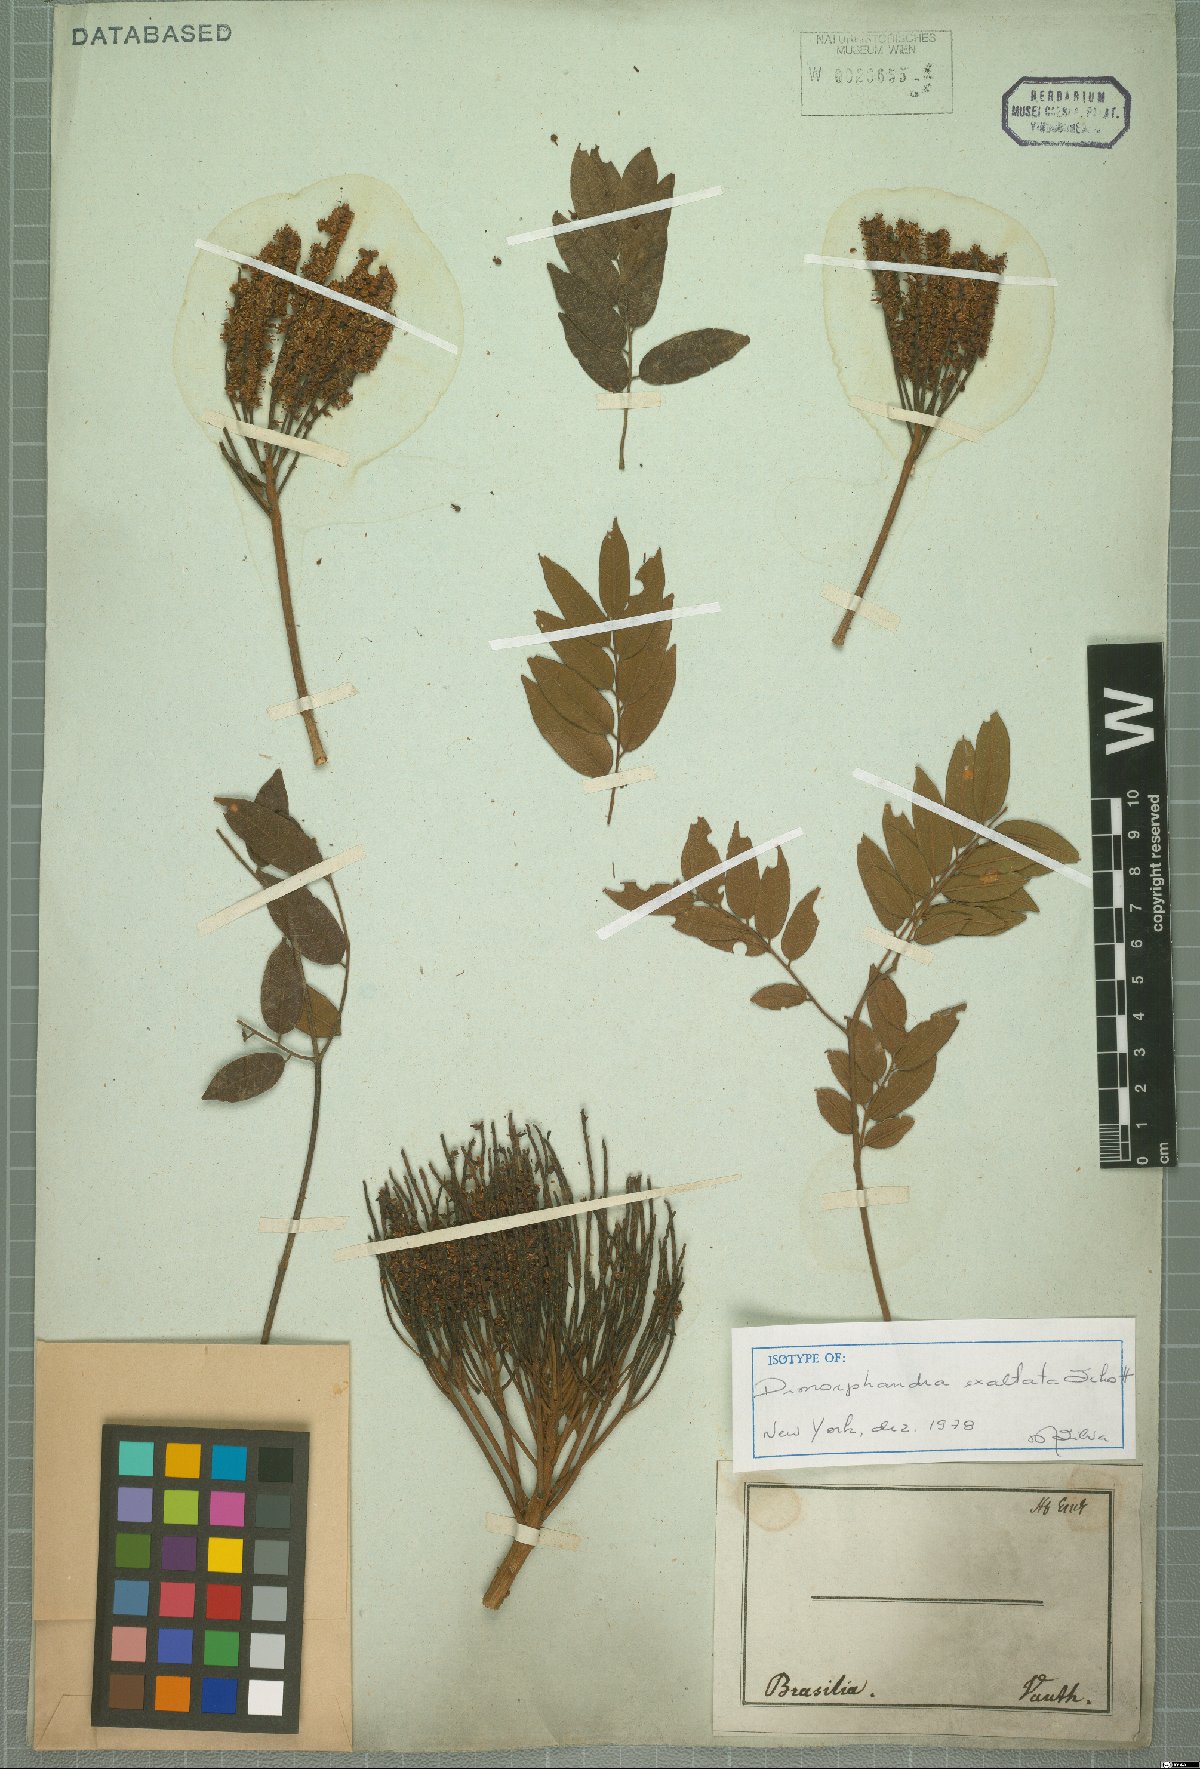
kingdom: Plantae
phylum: Tracheophyta
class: Magnoliopsida
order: Fabales
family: Fabaceae
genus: Dimorphandra
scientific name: Dimorphandra exaltata
